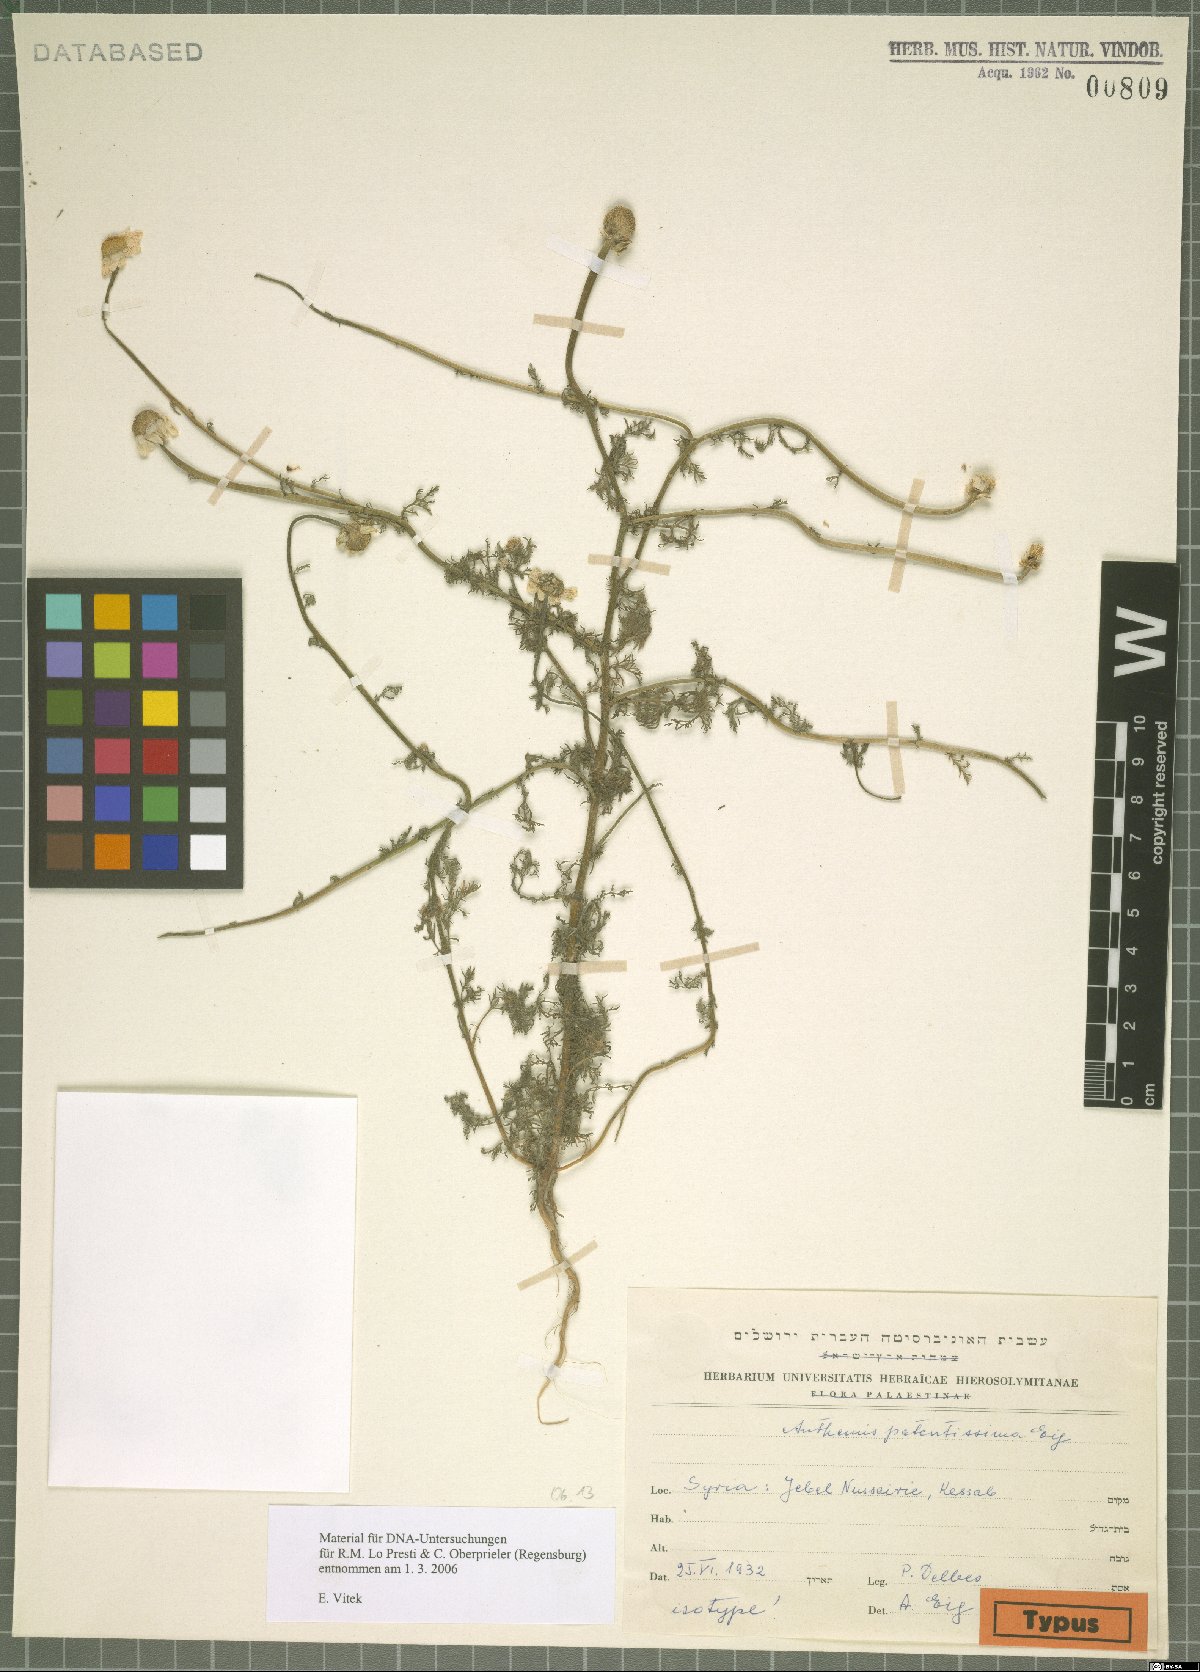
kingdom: Plantae
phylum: Tracheophyta
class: Magnoliopsida
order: Asterales
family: Asteraceae
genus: Anthemis
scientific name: Anthemis patentissima
